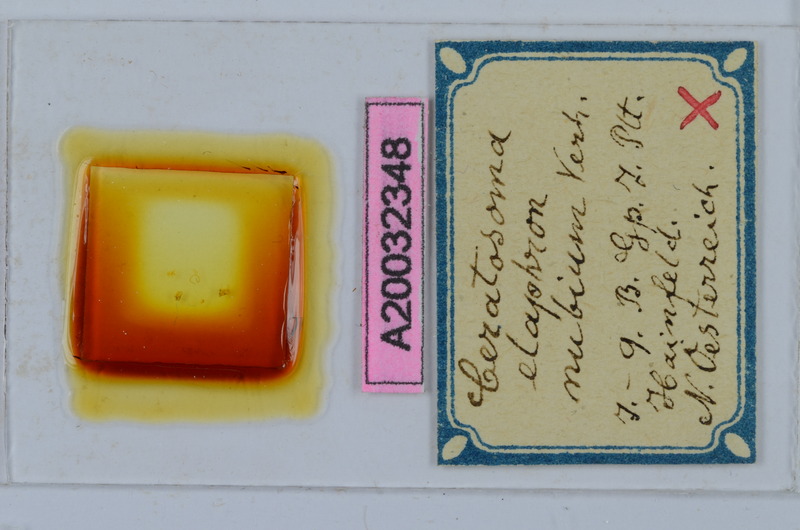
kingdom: Animalia
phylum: Arthropoda
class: Diplopoda
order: Chordeumatida
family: Craspedosomatidae
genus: Euceratosoma
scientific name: Euceratosoma elaphron
